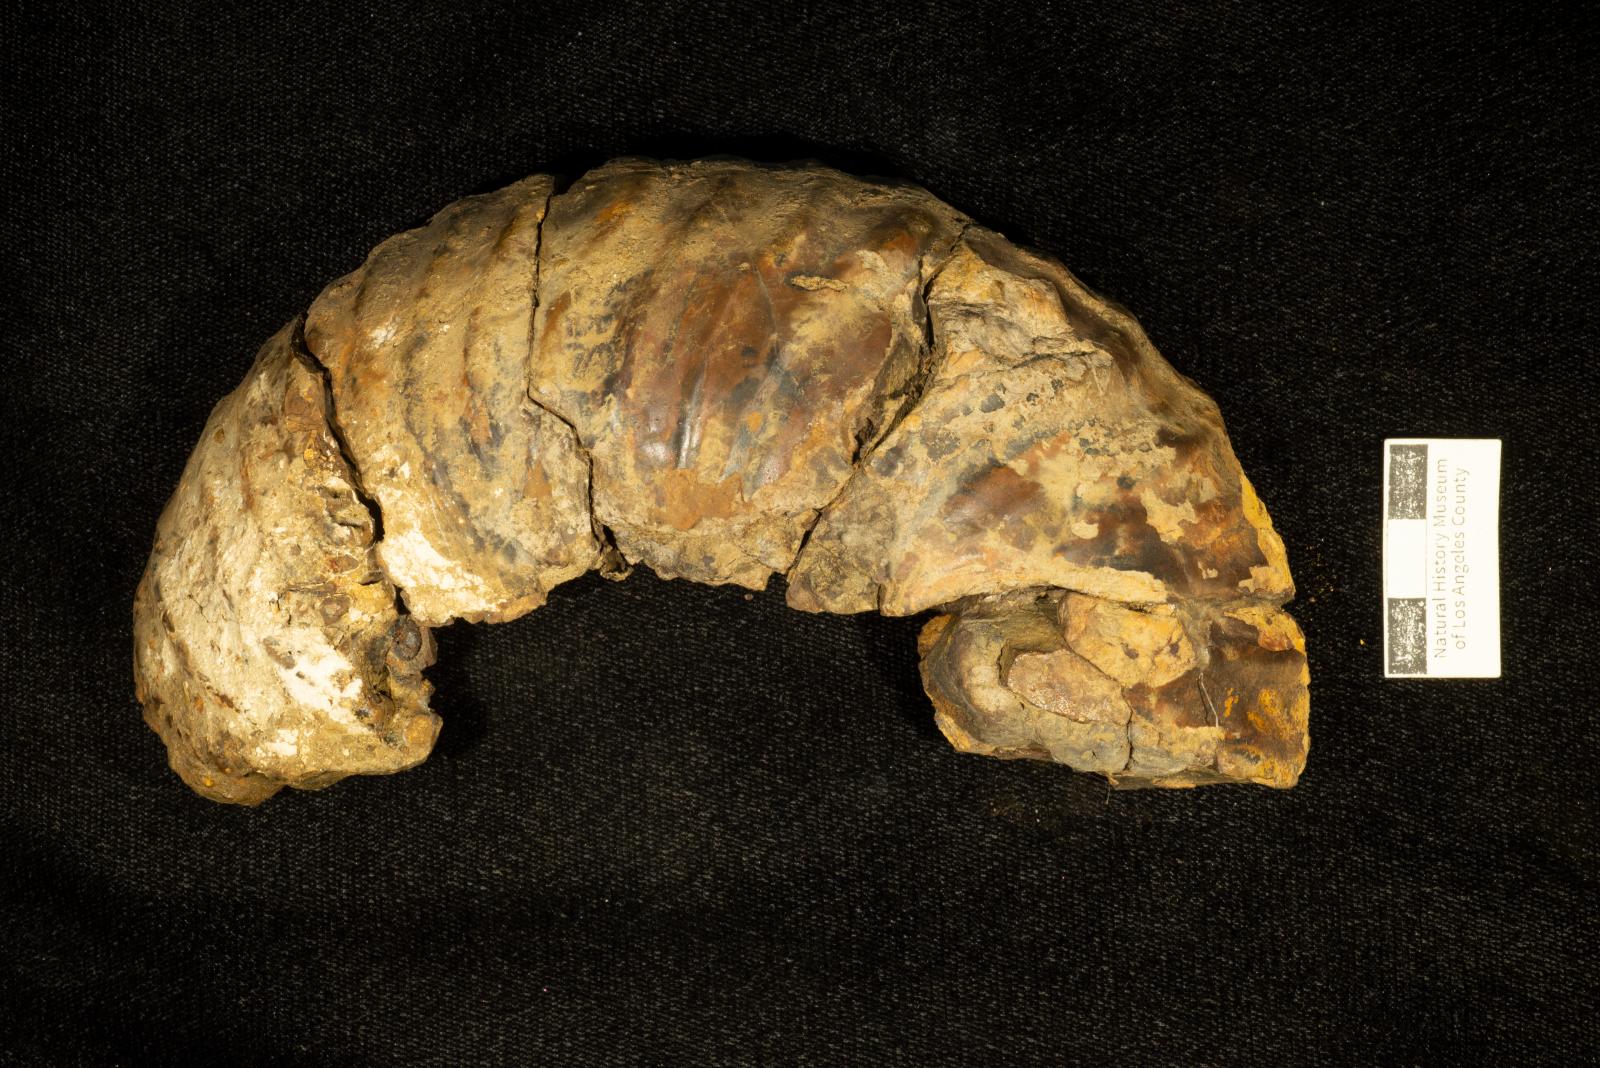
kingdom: Animalia
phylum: Mollusca
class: Cephalopoda
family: Pachydiscidae
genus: Eupachydiscus
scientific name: Eupachydiscus
